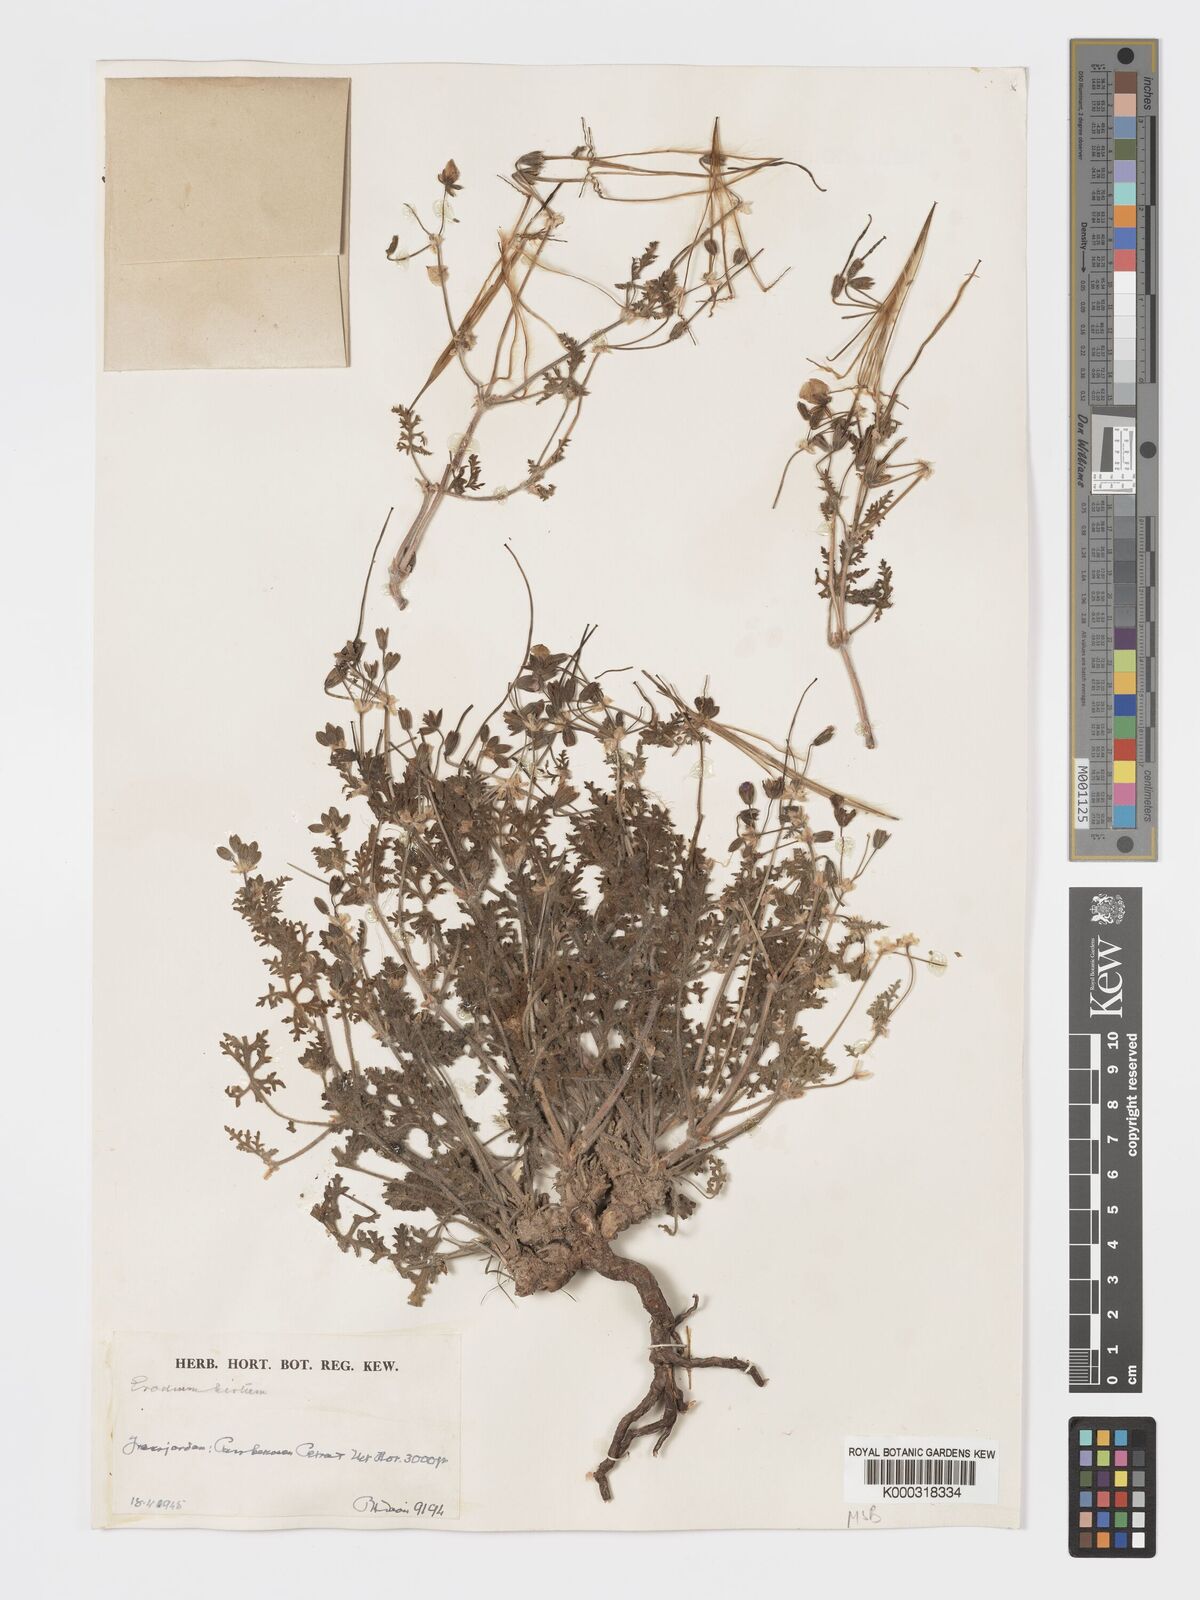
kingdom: Plantae
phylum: Tracheophyta
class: Magnoliopsida
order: Geraniales
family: Geraniaceae
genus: Erodium
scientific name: Erodium crassifolium
